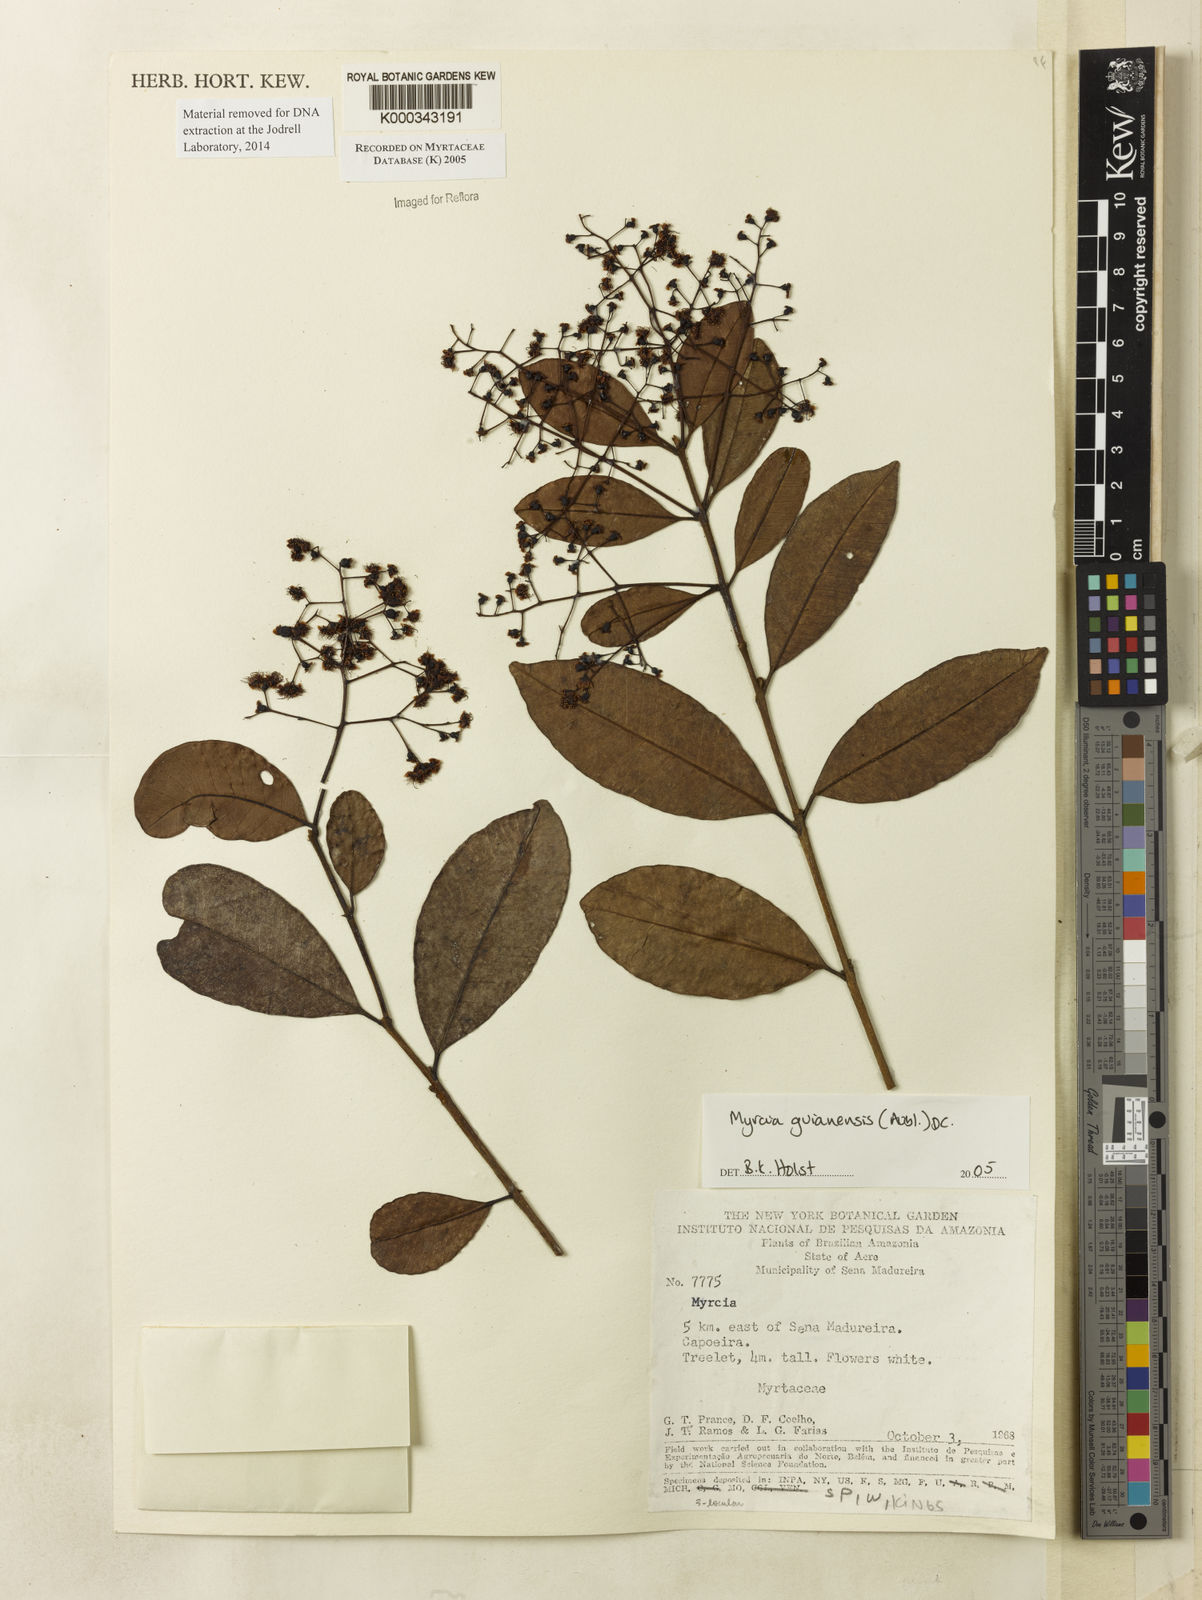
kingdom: Plantae
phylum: Tracheophyta
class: Magnoliopsida
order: Myrtales
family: Myrtaceae
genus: Myrcia
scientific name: Myrcia guianensis
